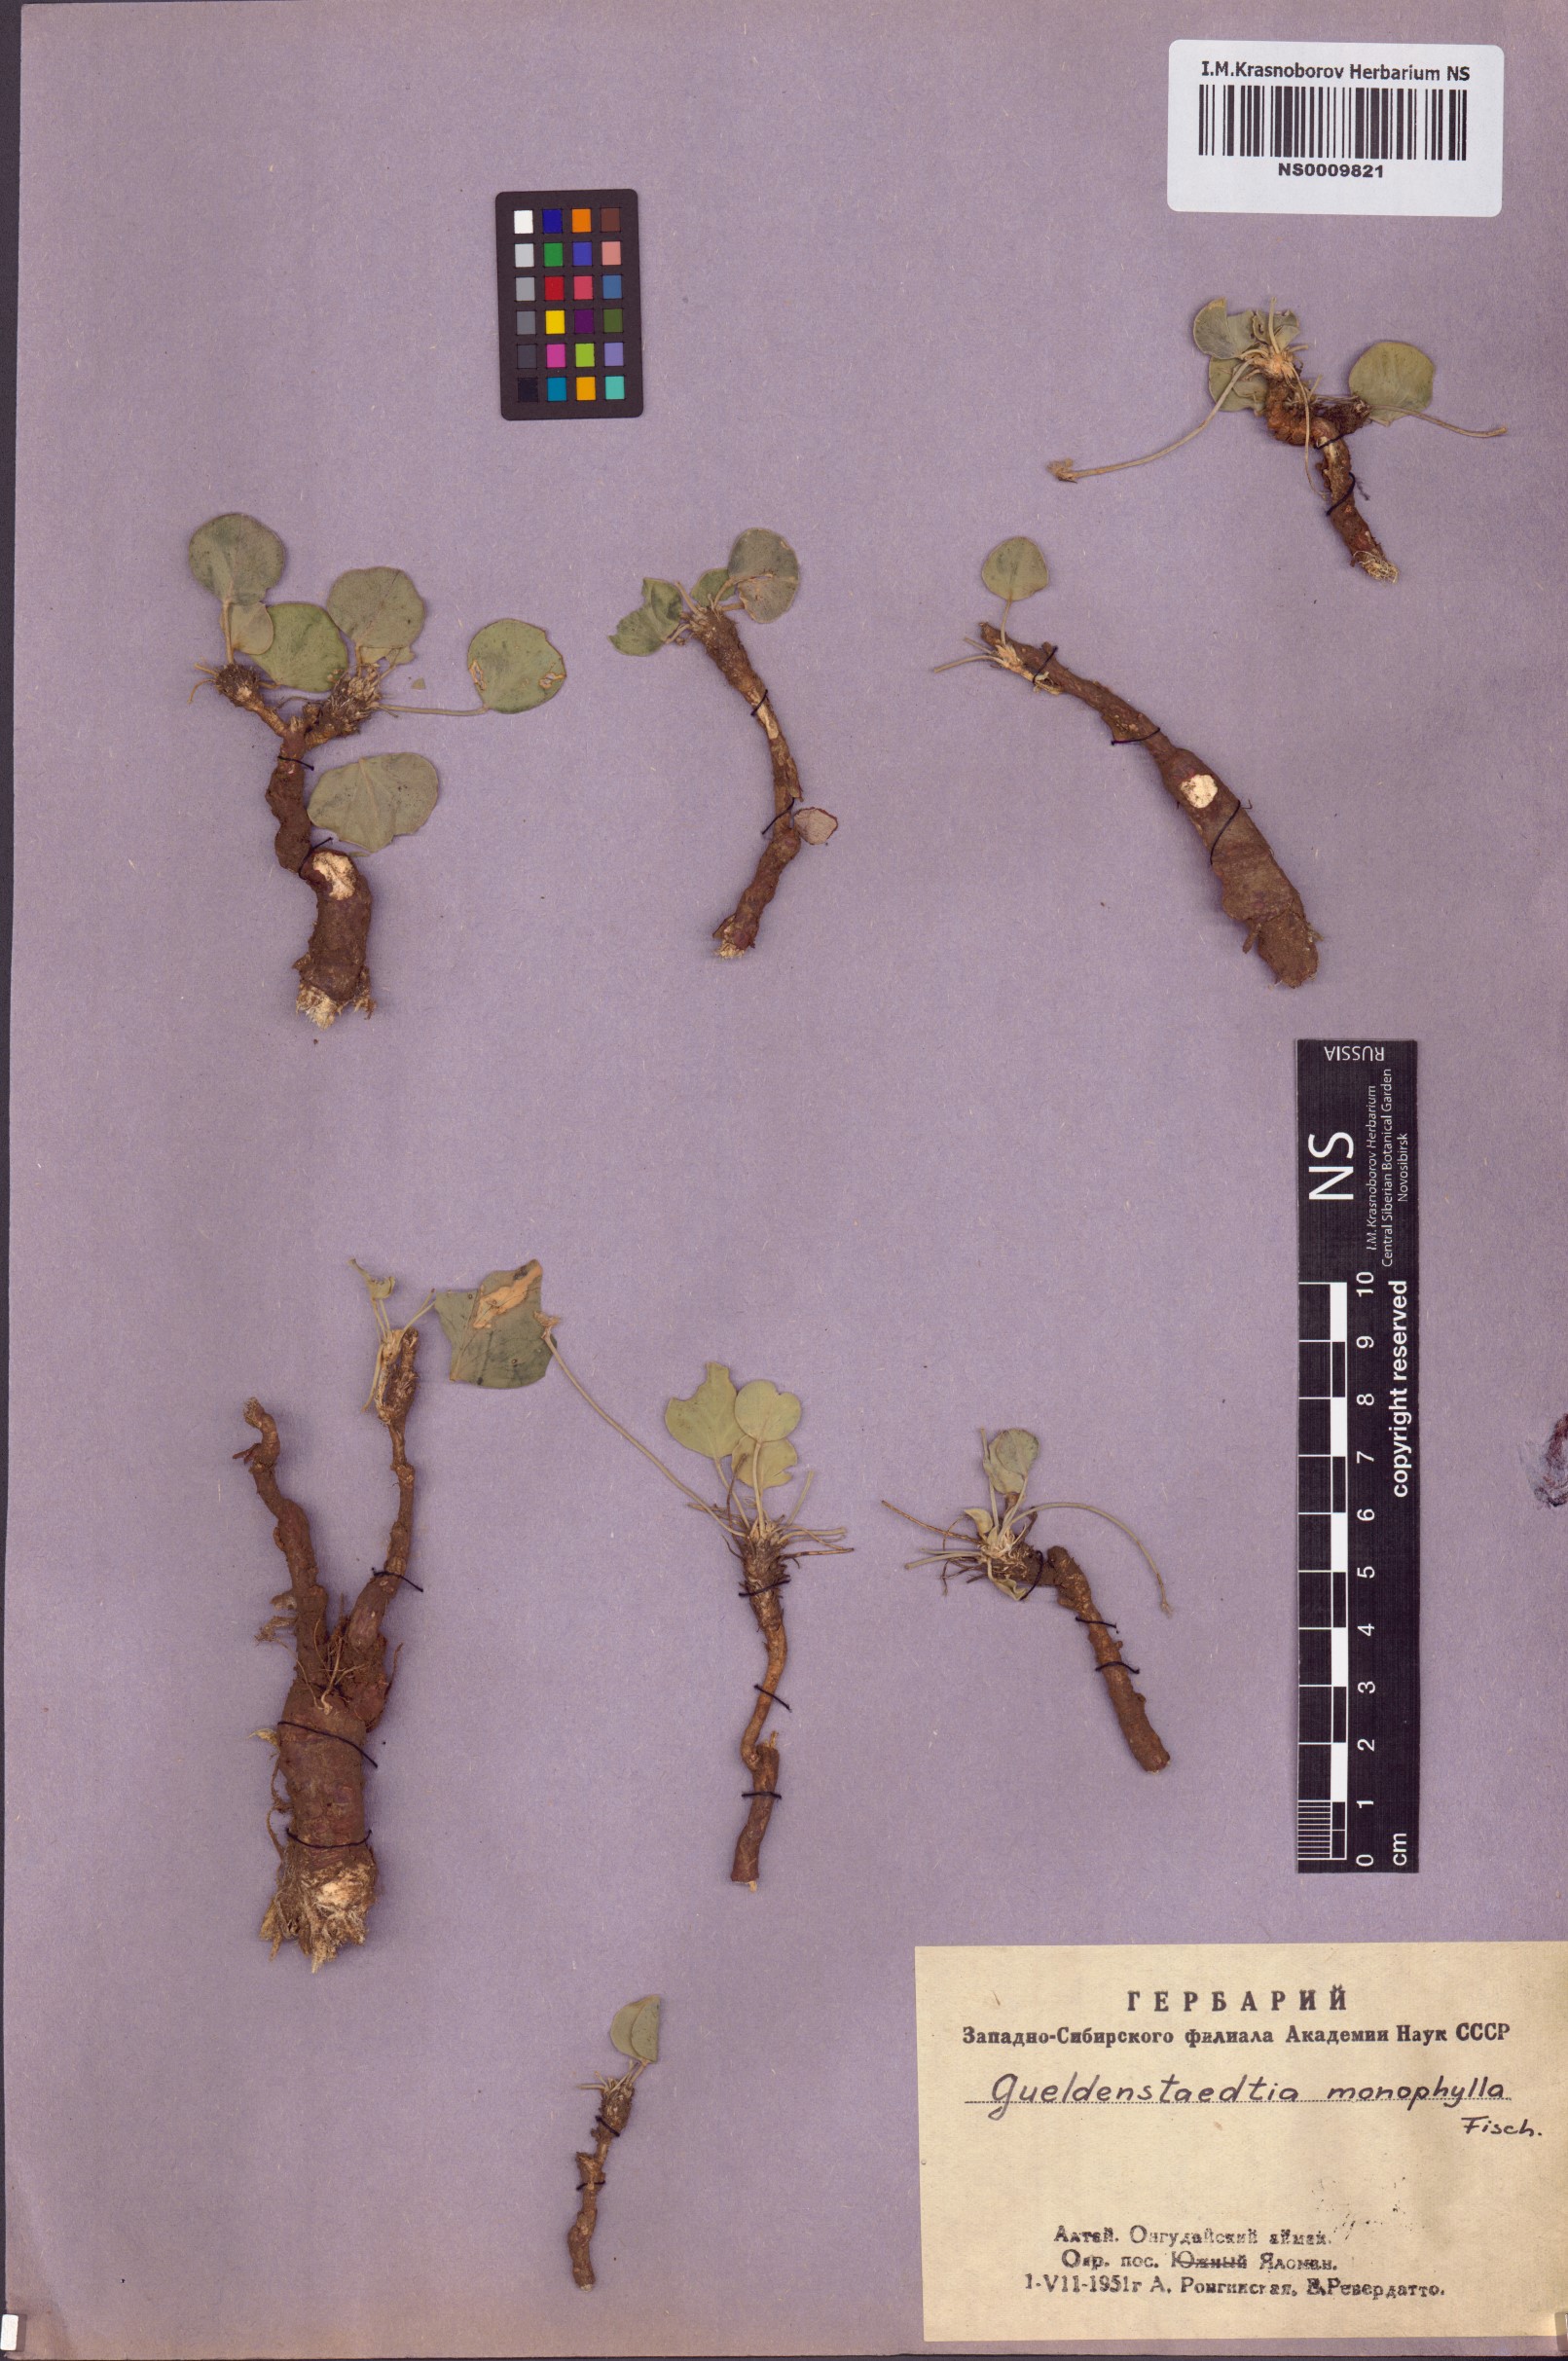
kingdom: Plantae
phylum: Tracheophyta
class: Magnoliopsida
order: Fabales
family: Fabaceae
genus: Gueldenstaedtia
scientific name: Gueldenstaedtia monophylla
